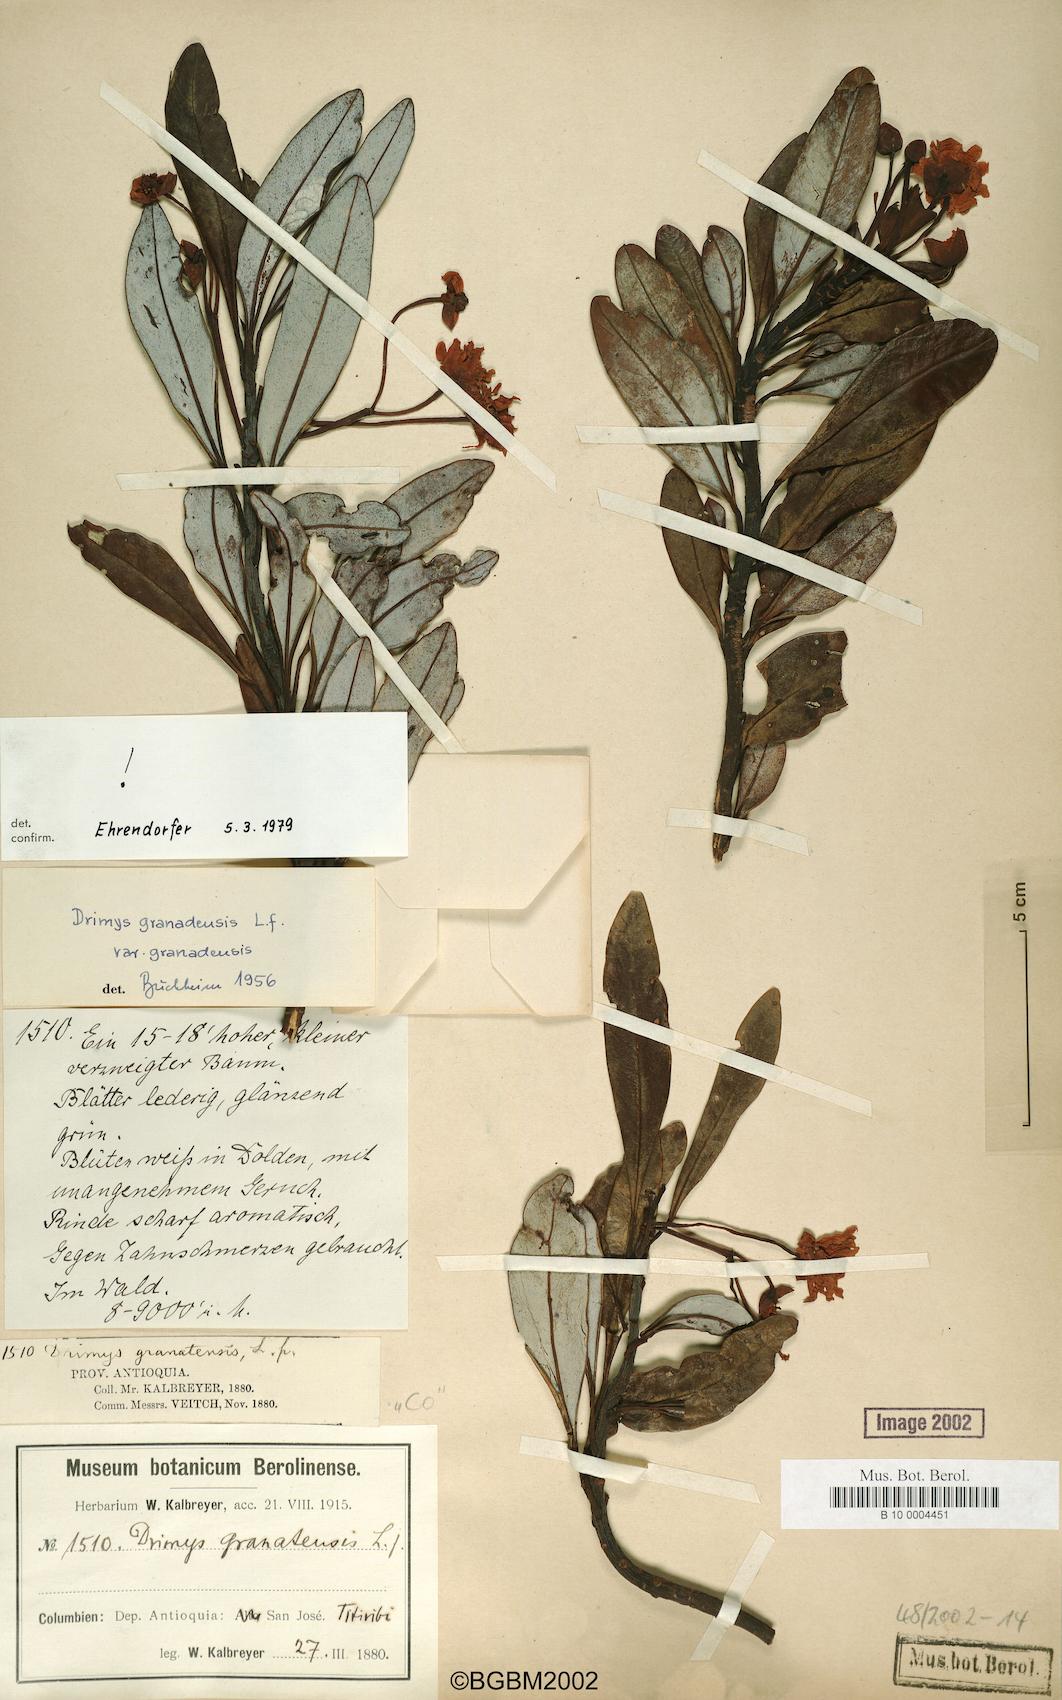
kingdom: Plantae
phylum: Tracheophyta
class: Magnoliopsida
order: Canellales
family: Winteraceae
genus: Drimys
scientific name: Drimys granadensis
